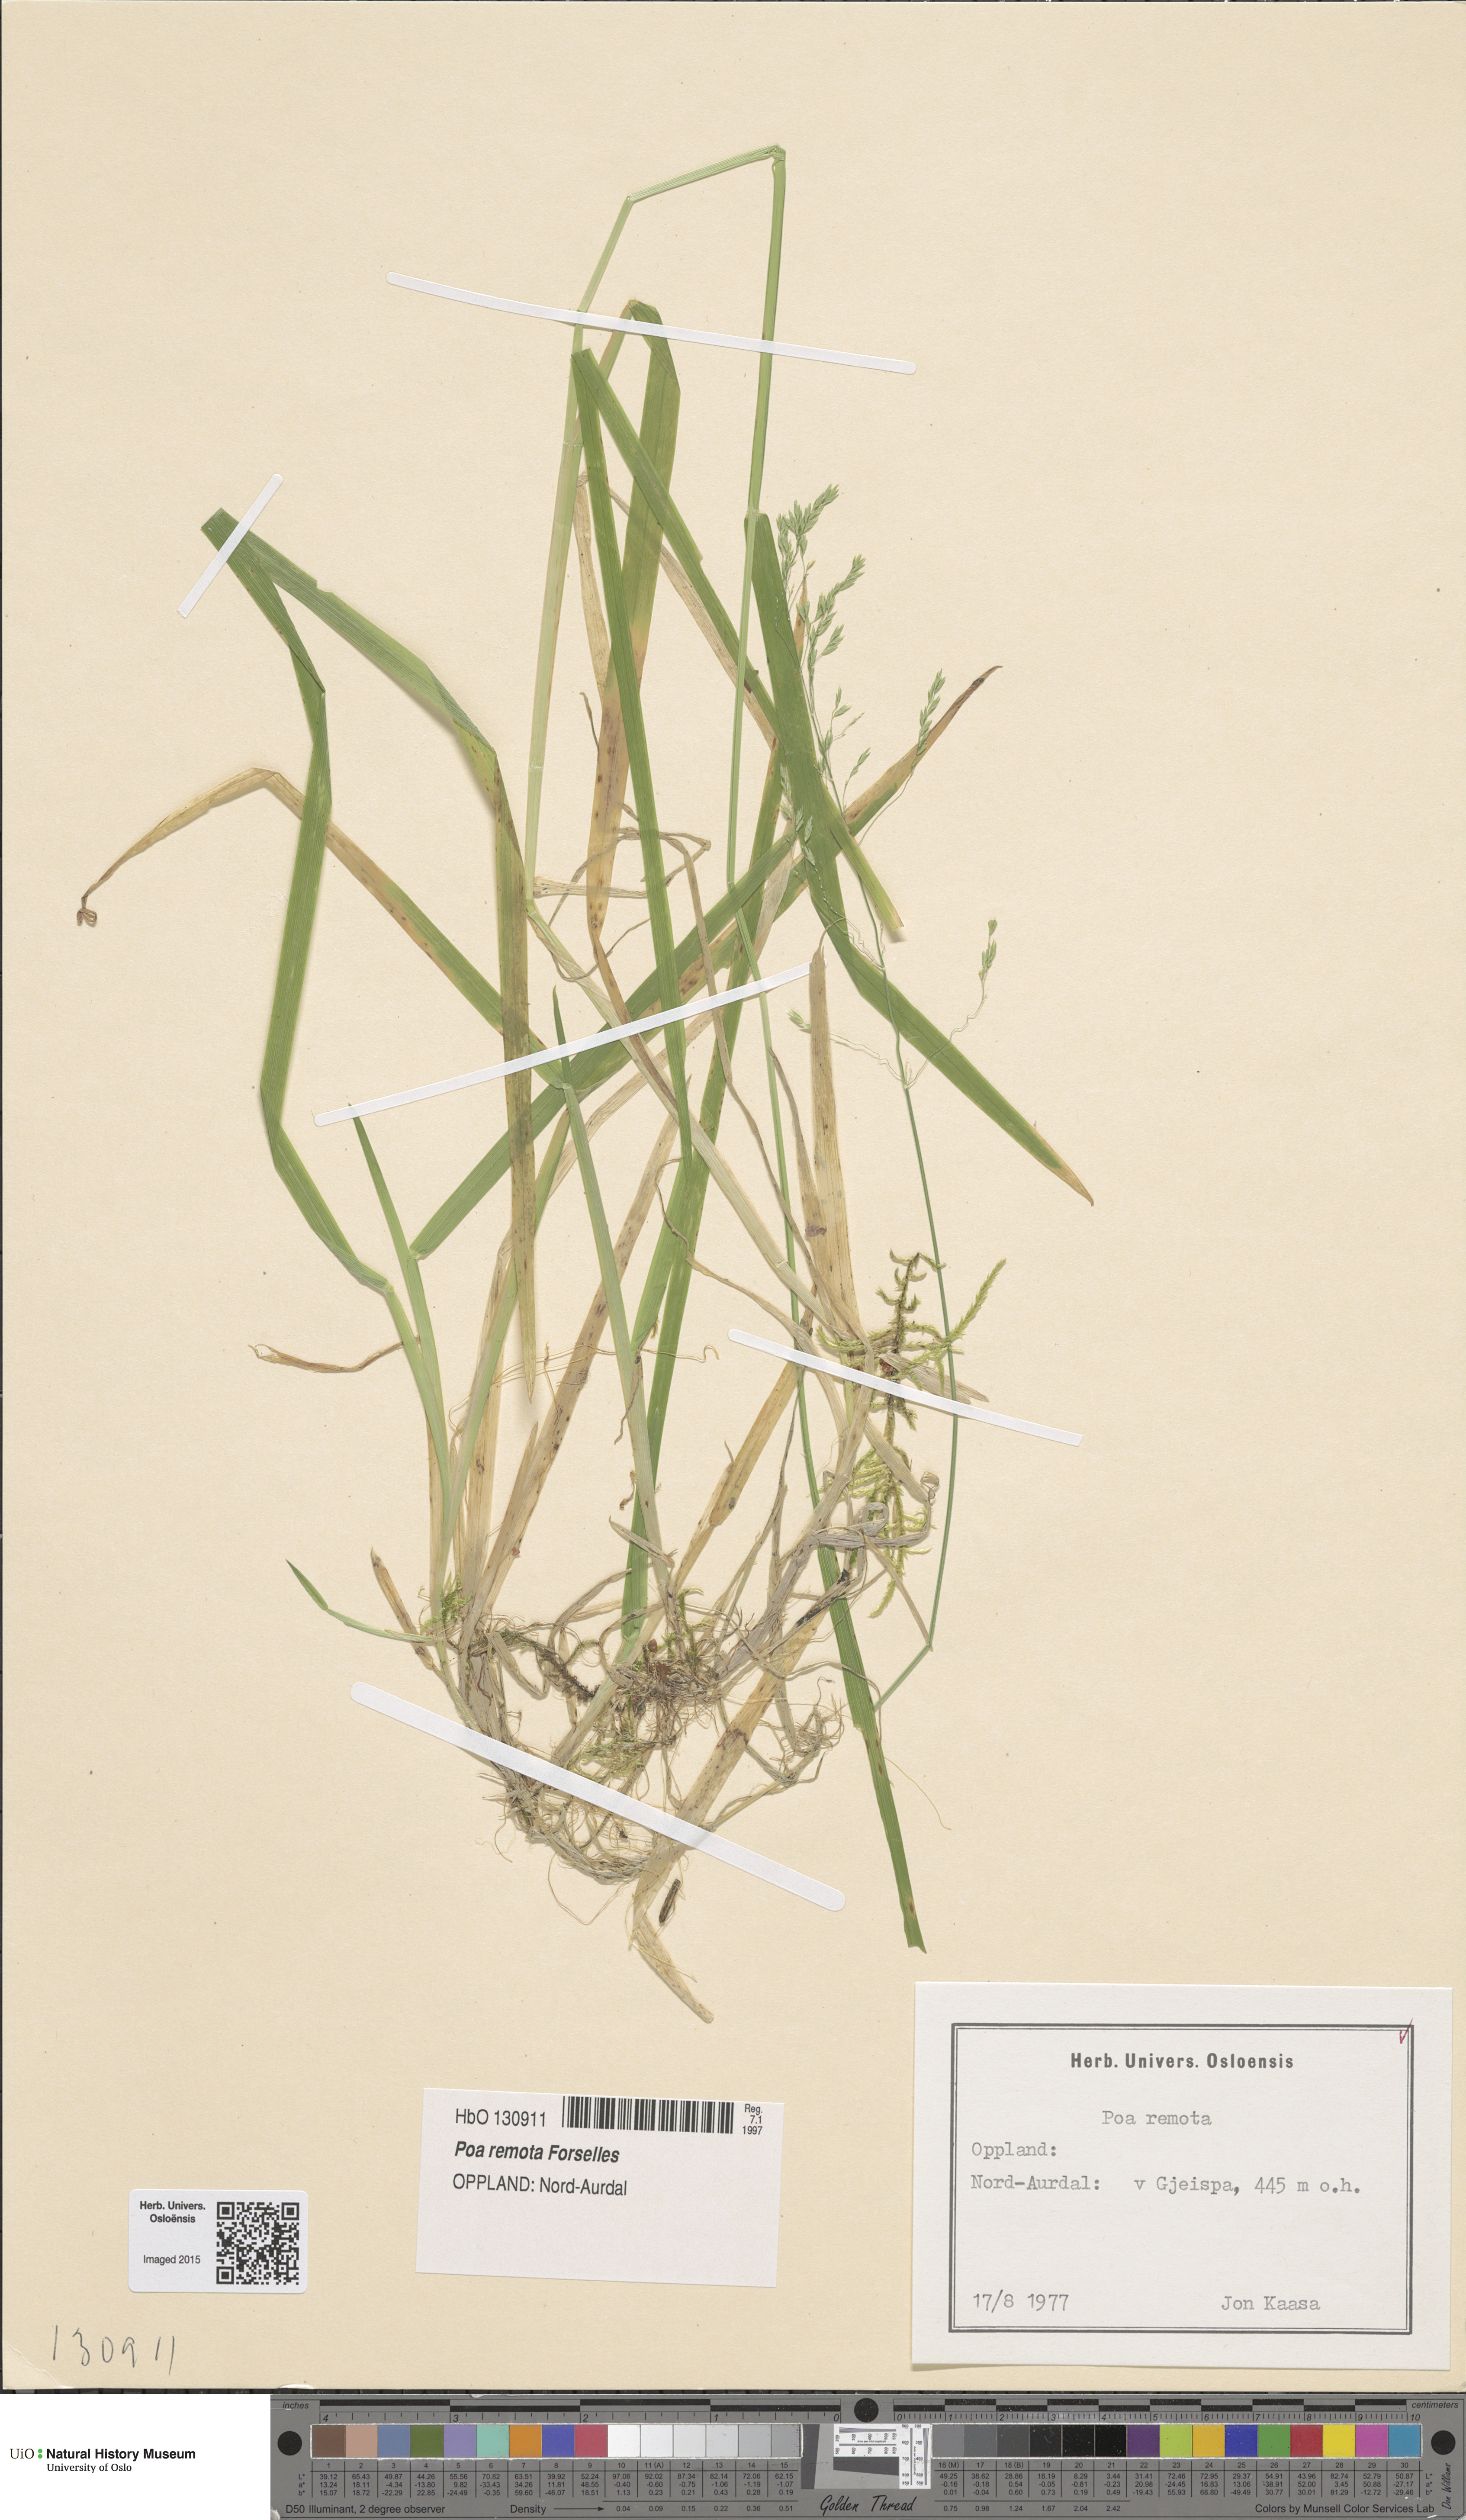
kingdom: Plantae
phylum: Tracheophyta
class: Liliopsida
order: Poales
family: Poaceae
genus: Poa
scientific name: Poa remota
